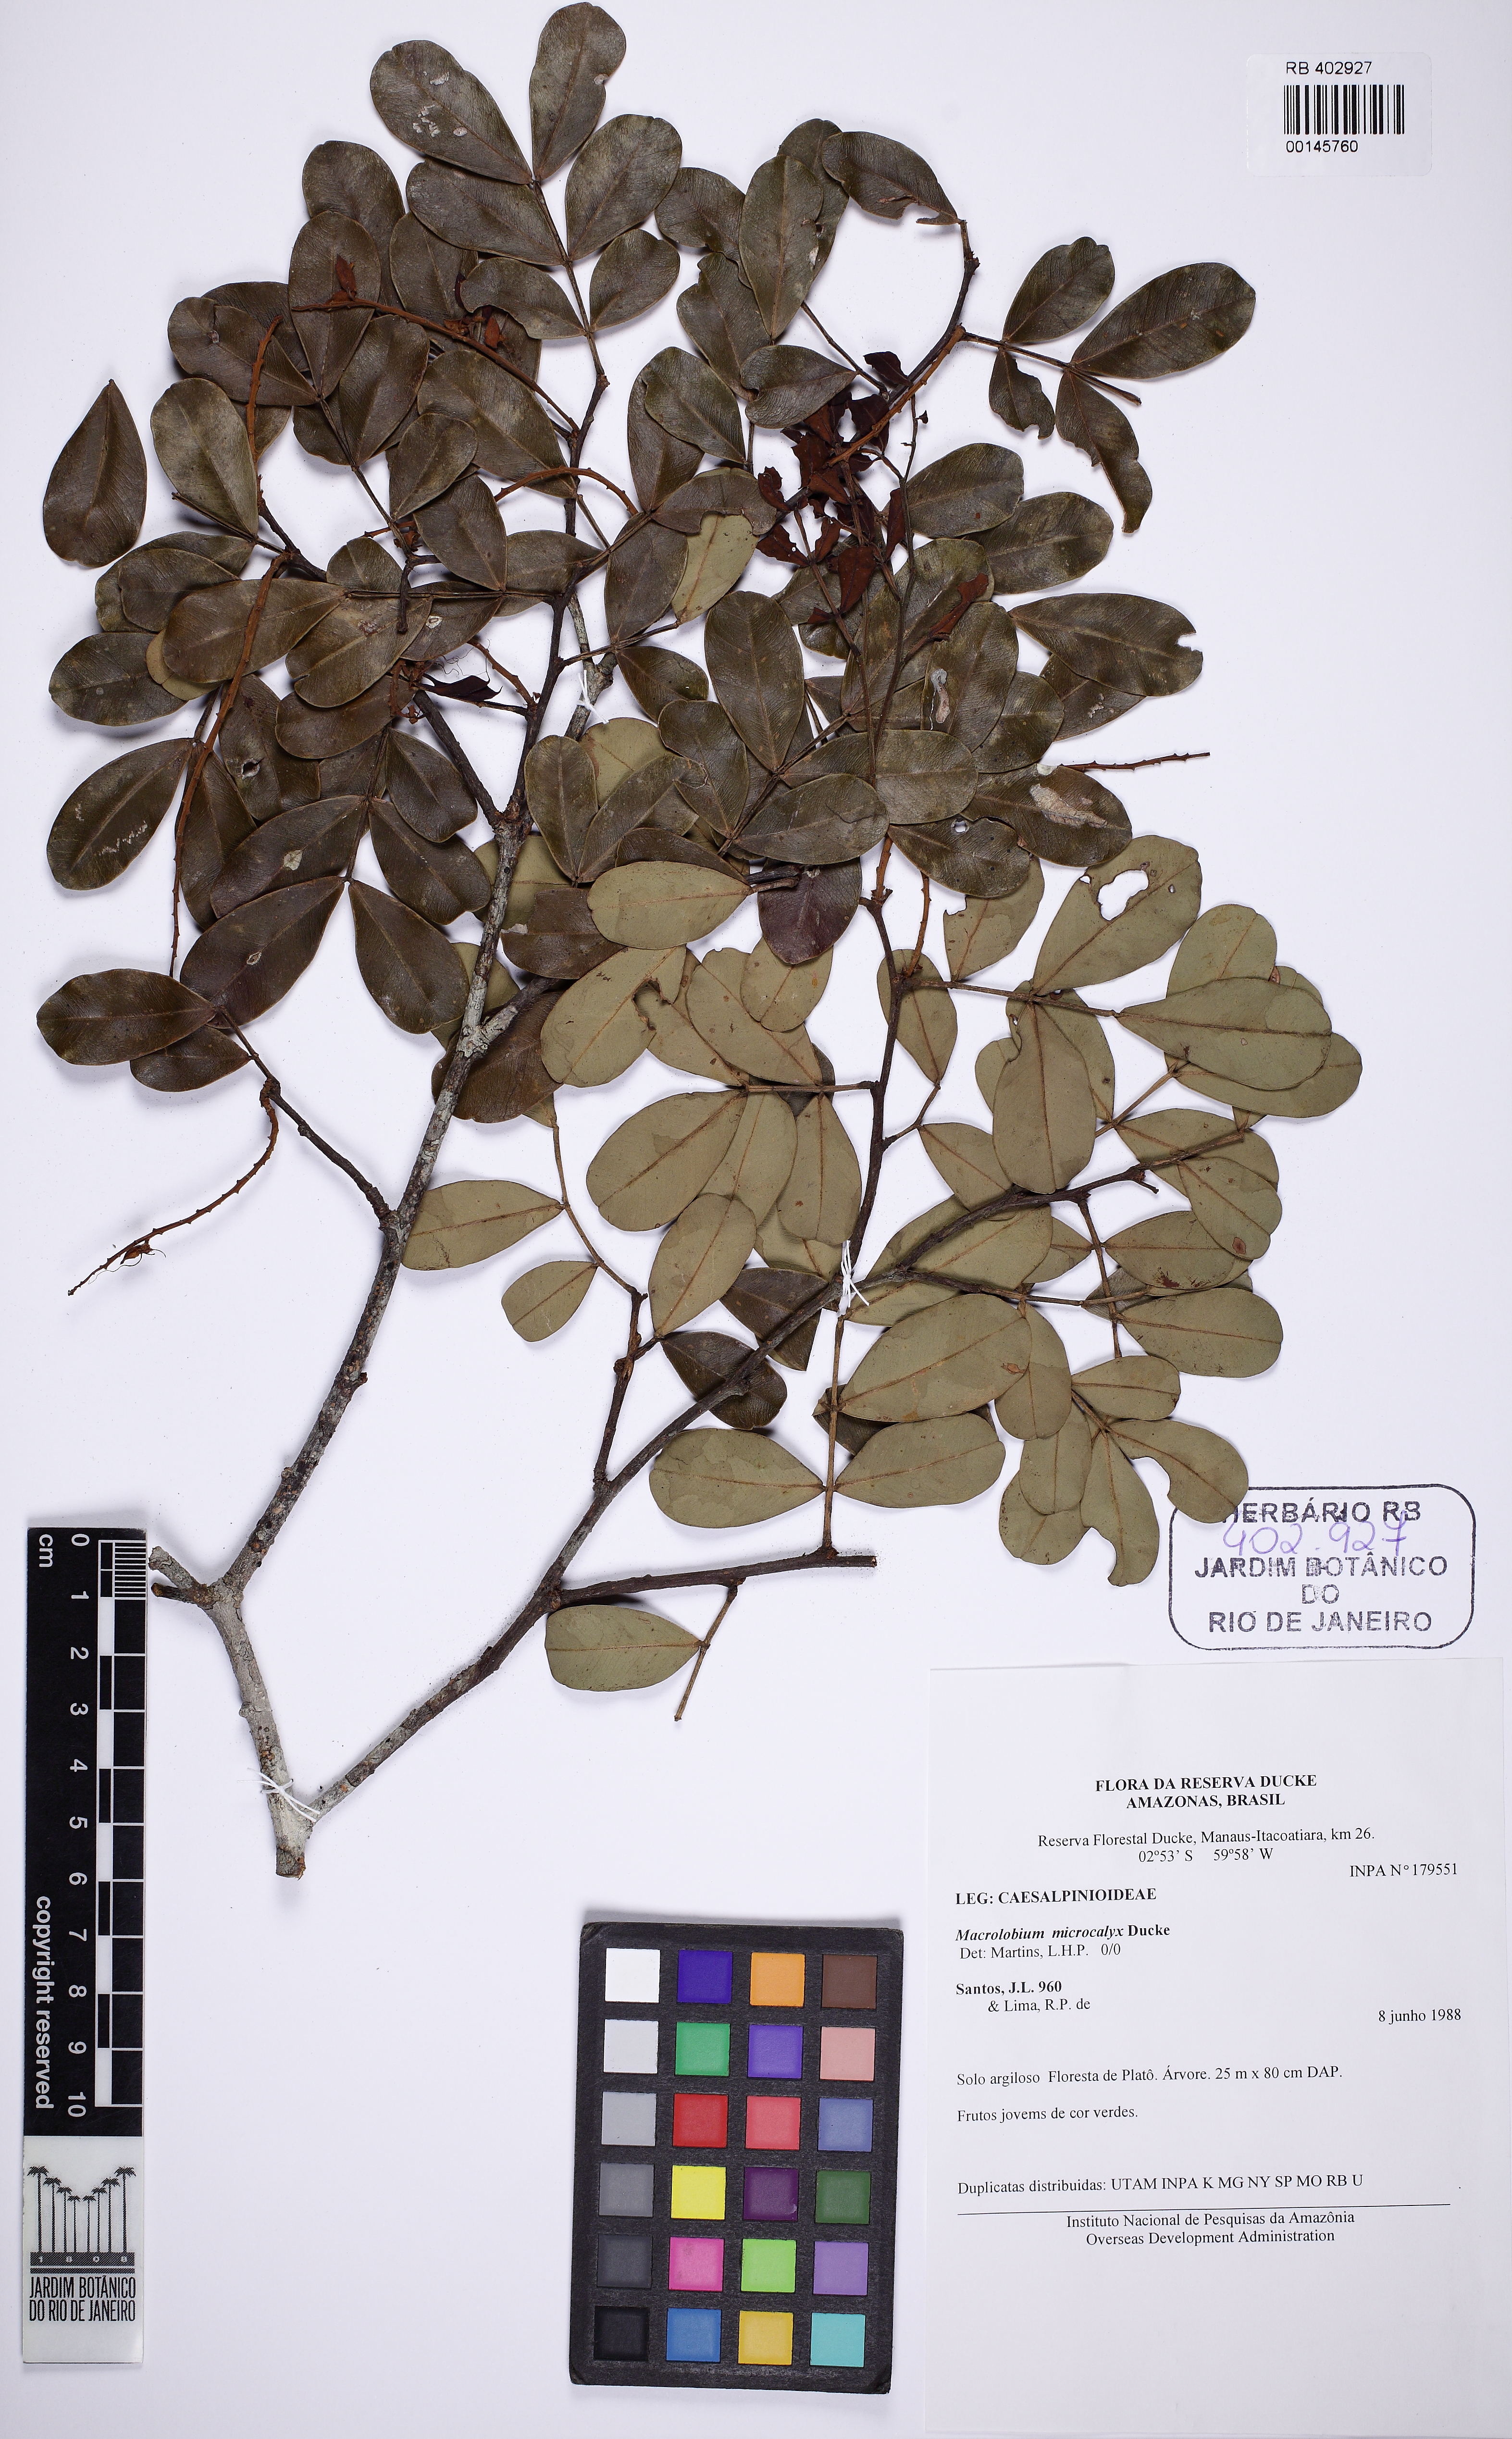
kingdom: Plantae
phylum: Tracheophyta
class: Magnoliopsida
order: Fabales
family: Fabaceae
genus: Macrolobium
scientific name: Macrolobium microcalyx
